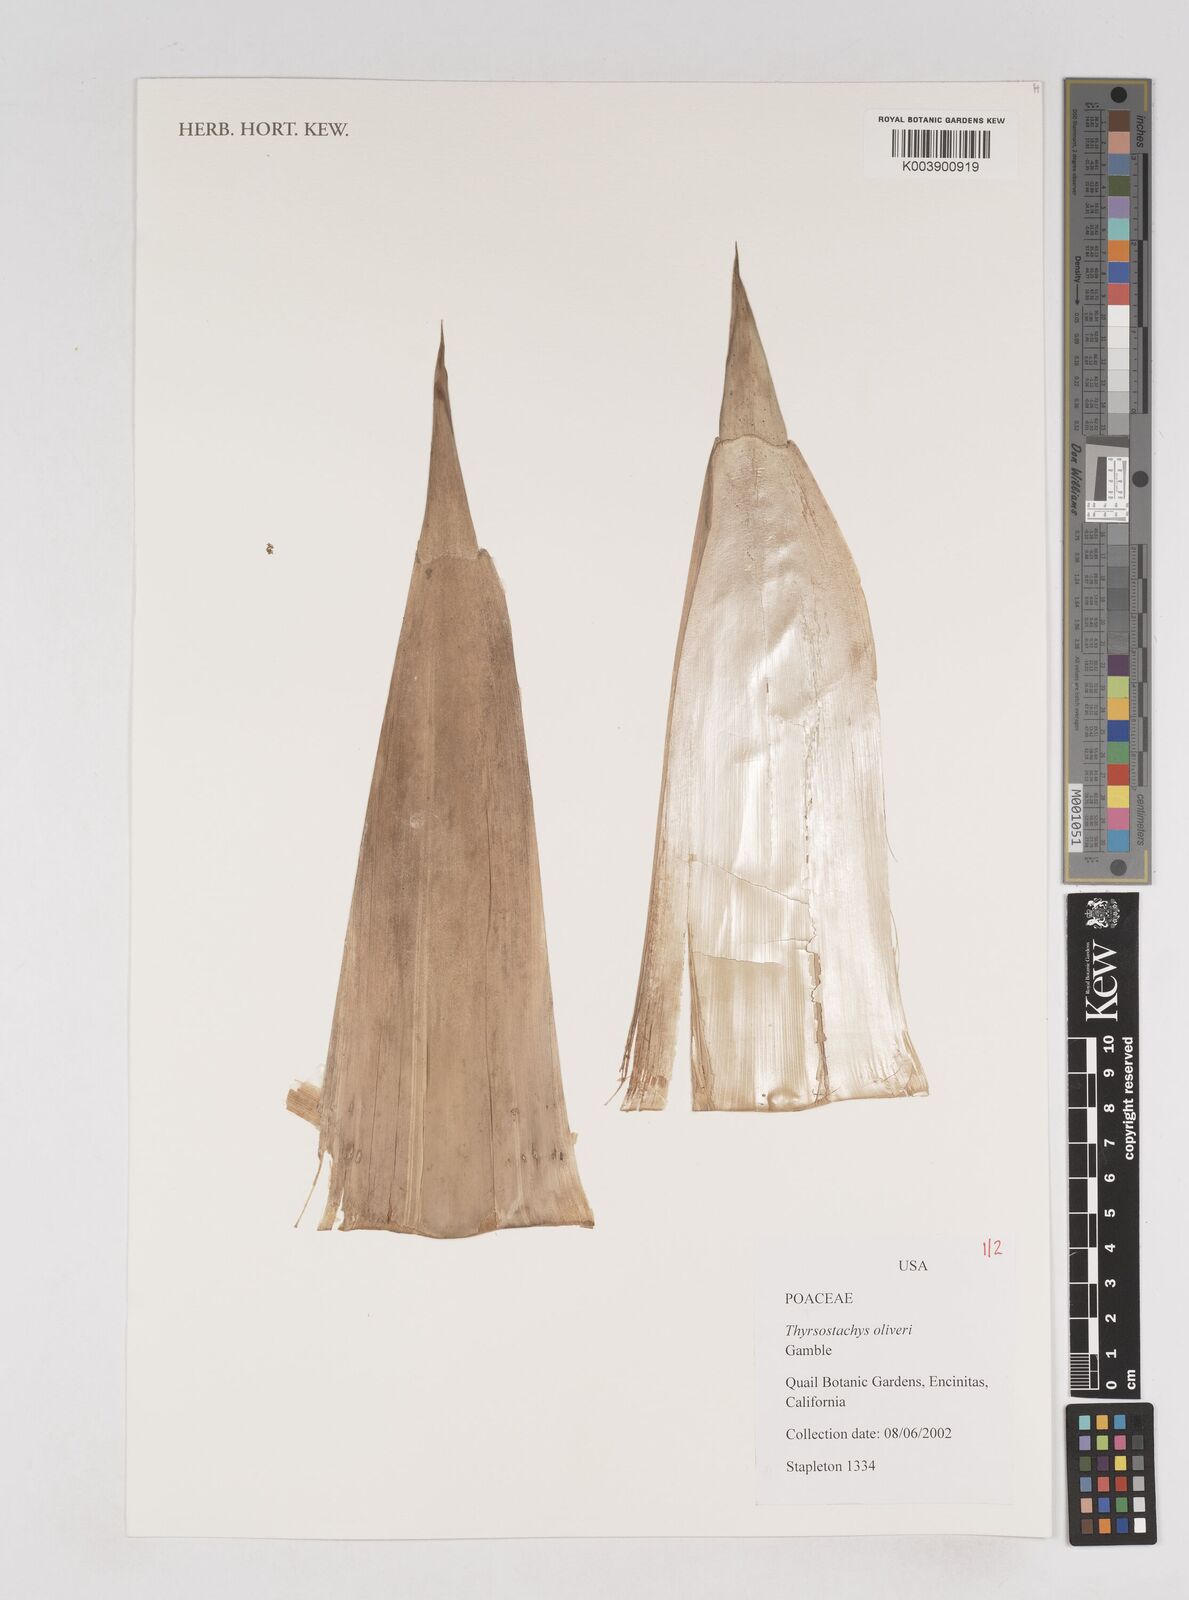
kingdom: Plantae
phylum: Tracheophyta
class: Liliopsida
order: Poales
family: Poaceae
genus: Thyrsostachys
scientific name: Thyrsostachys oliveri
